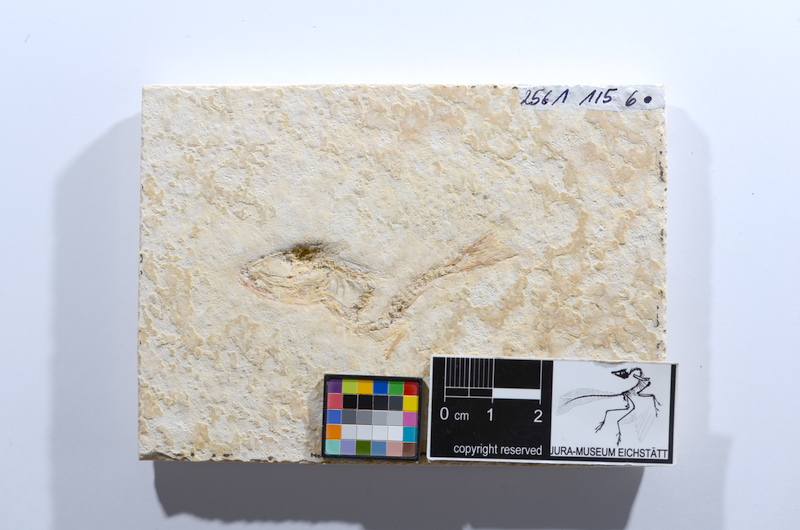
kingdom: Animalia
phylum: Chordata
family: Ascalaboidae
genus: Tharsis
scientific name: Tharsis dubius
